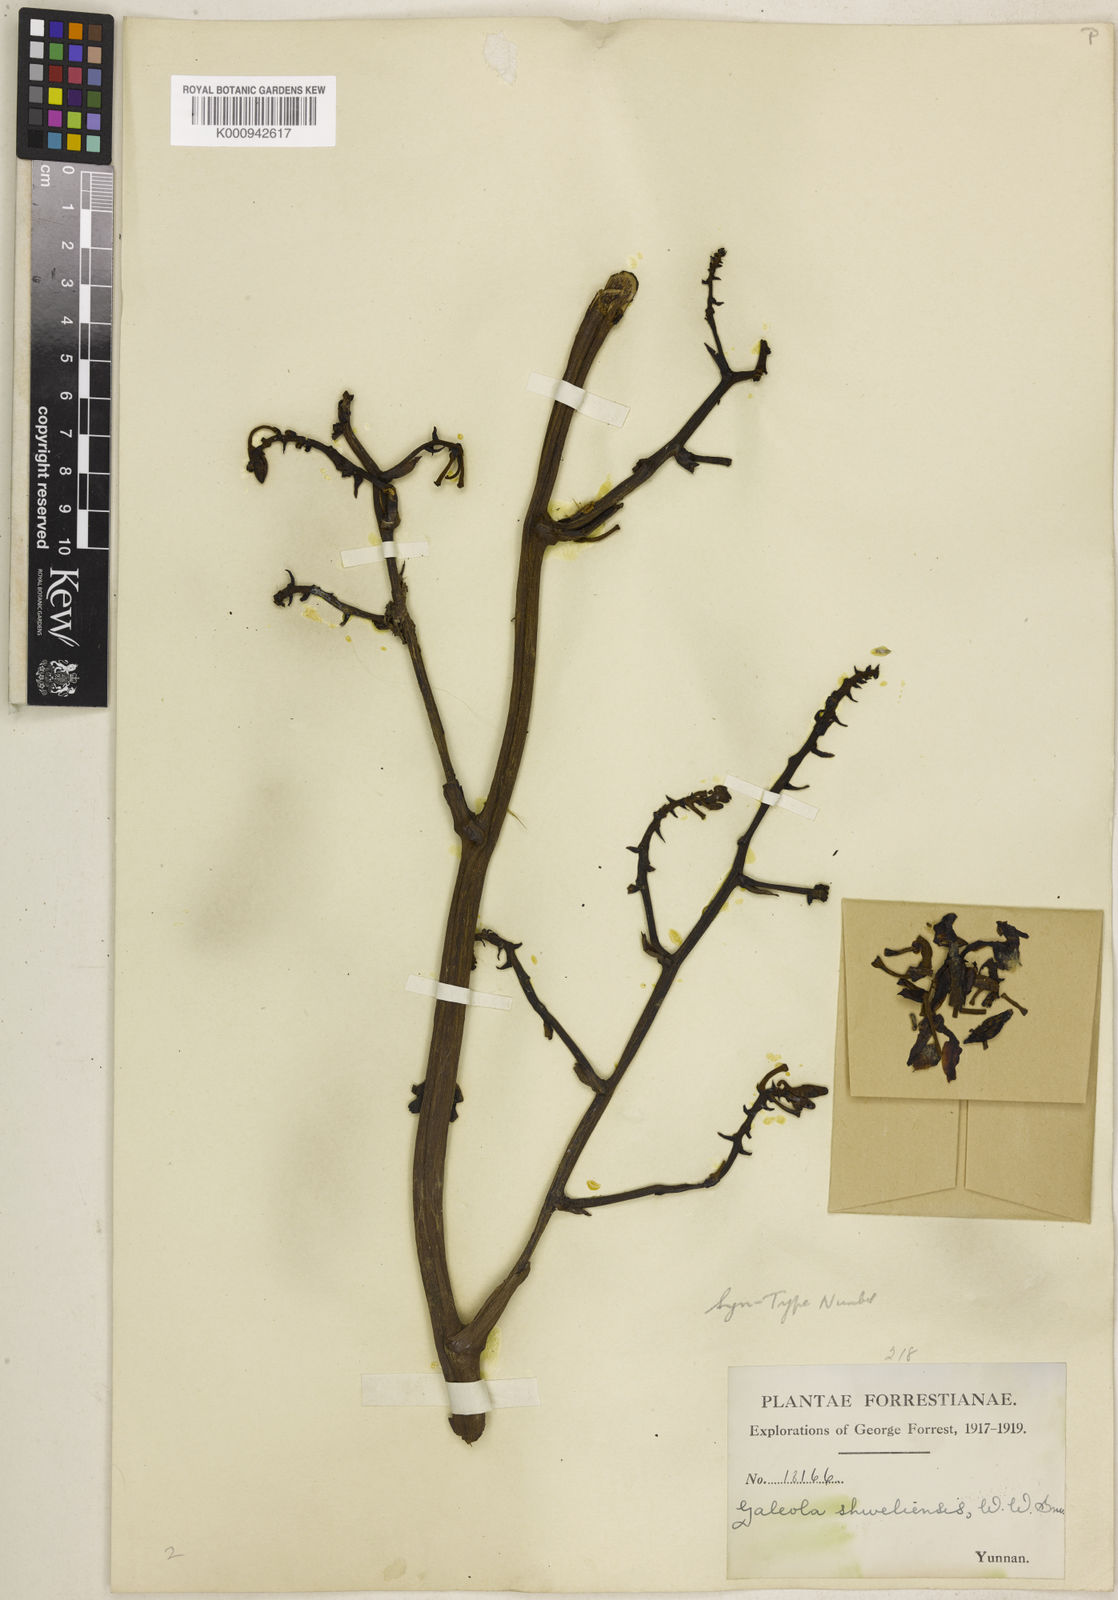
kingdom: Plantae
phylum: Tracheophyta
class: Liliopsida
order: Asparagales
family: Orchidaceae
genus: Galeola
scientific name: Galeola faberi
